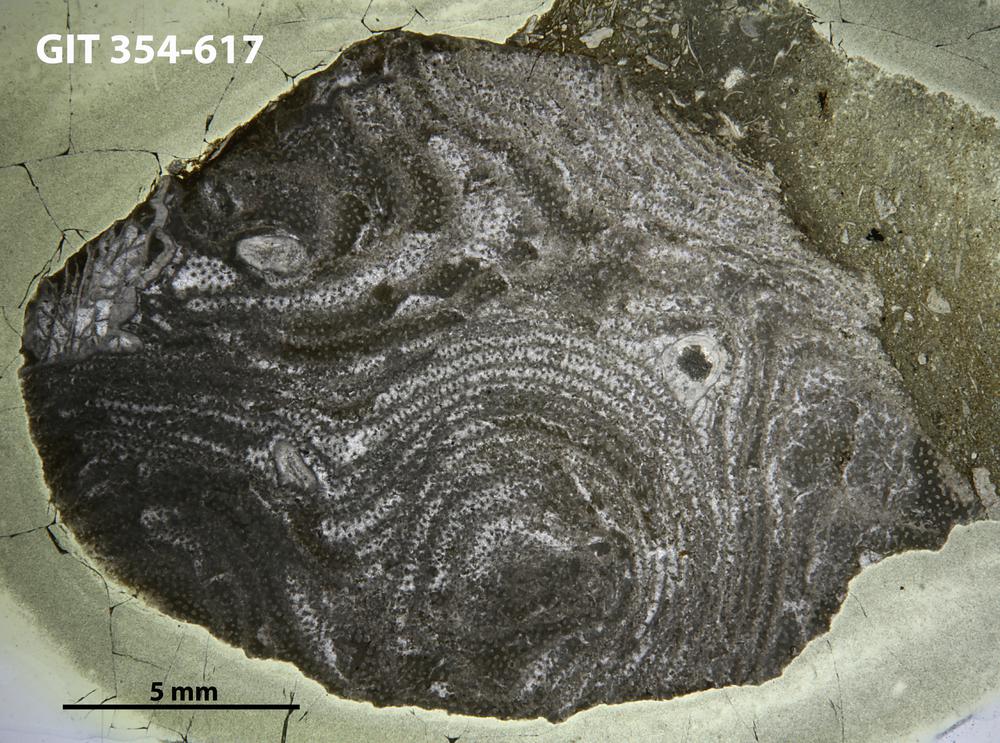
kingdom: Animalia
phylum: Porifera
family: Densastromatidae
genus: Densastroma
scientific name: Densastroma Actinostroma pexisum
